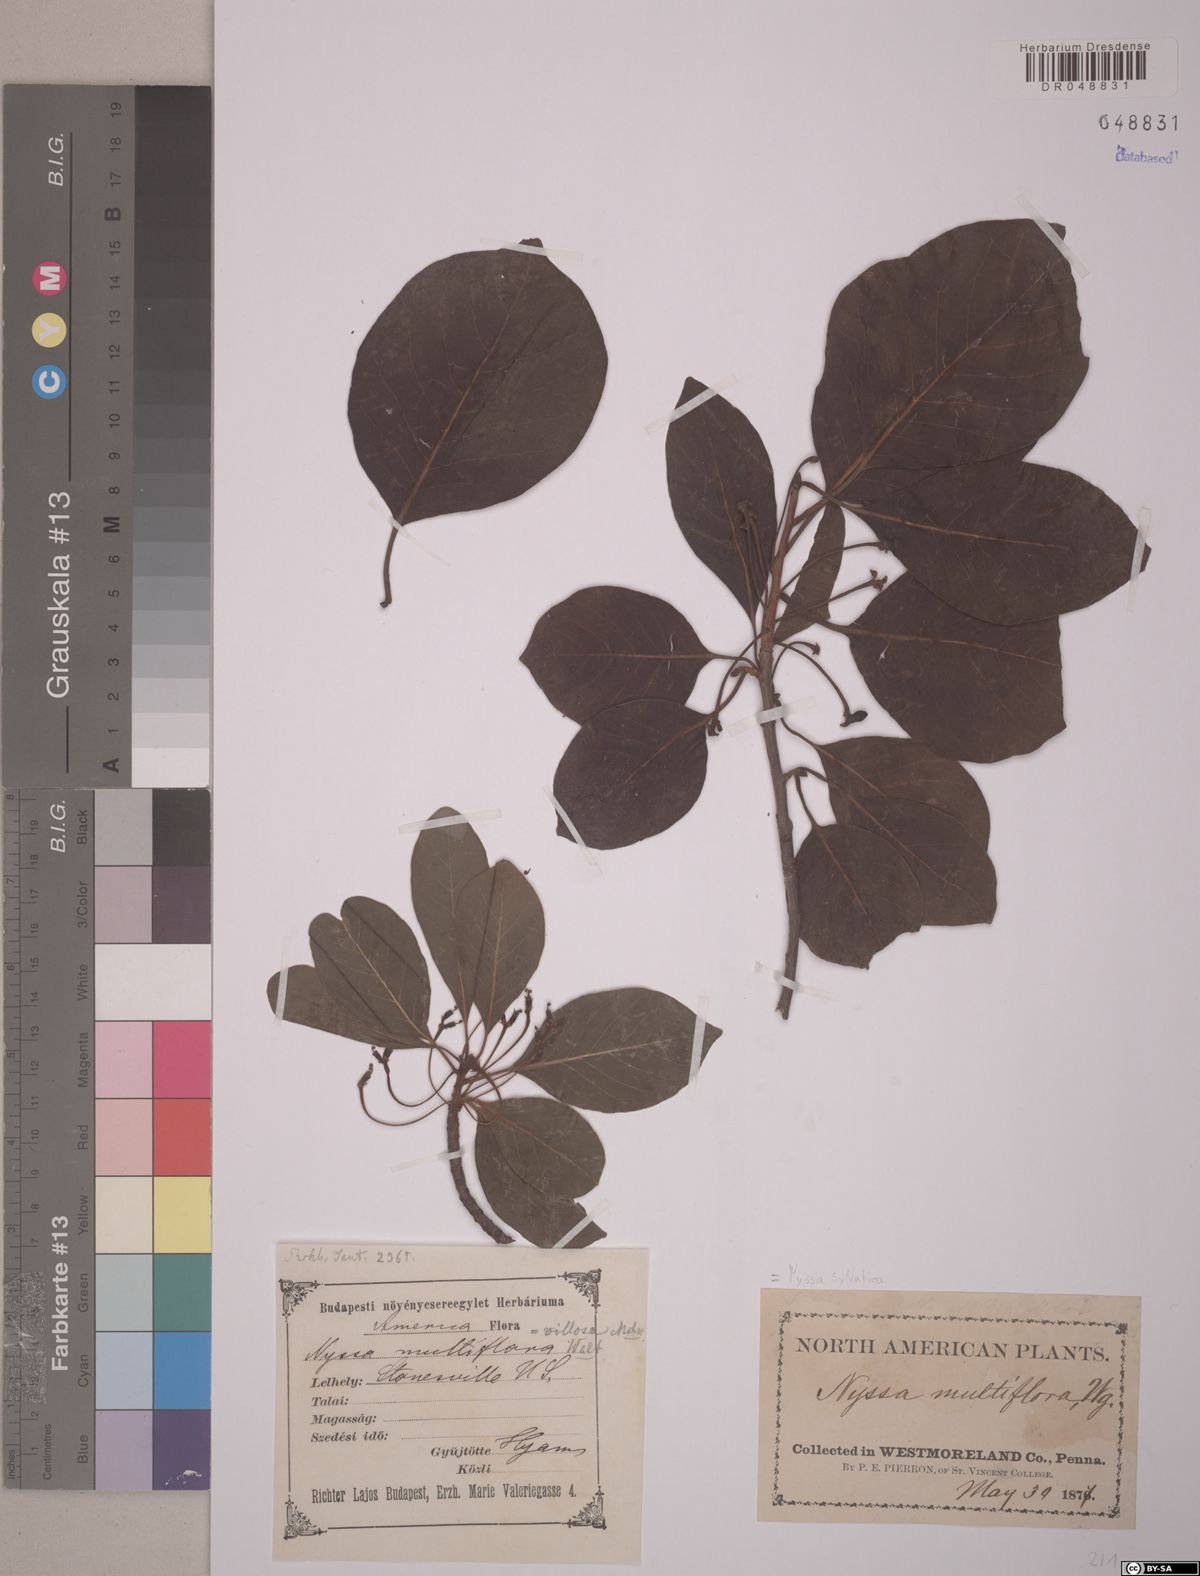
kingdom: Plantae
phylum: Tracheophyta
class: Magnoliopsida
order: Cornales
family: Nyssaceae
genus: Nyssa
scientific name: Nyssa sylvatica
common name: Black tupelo
